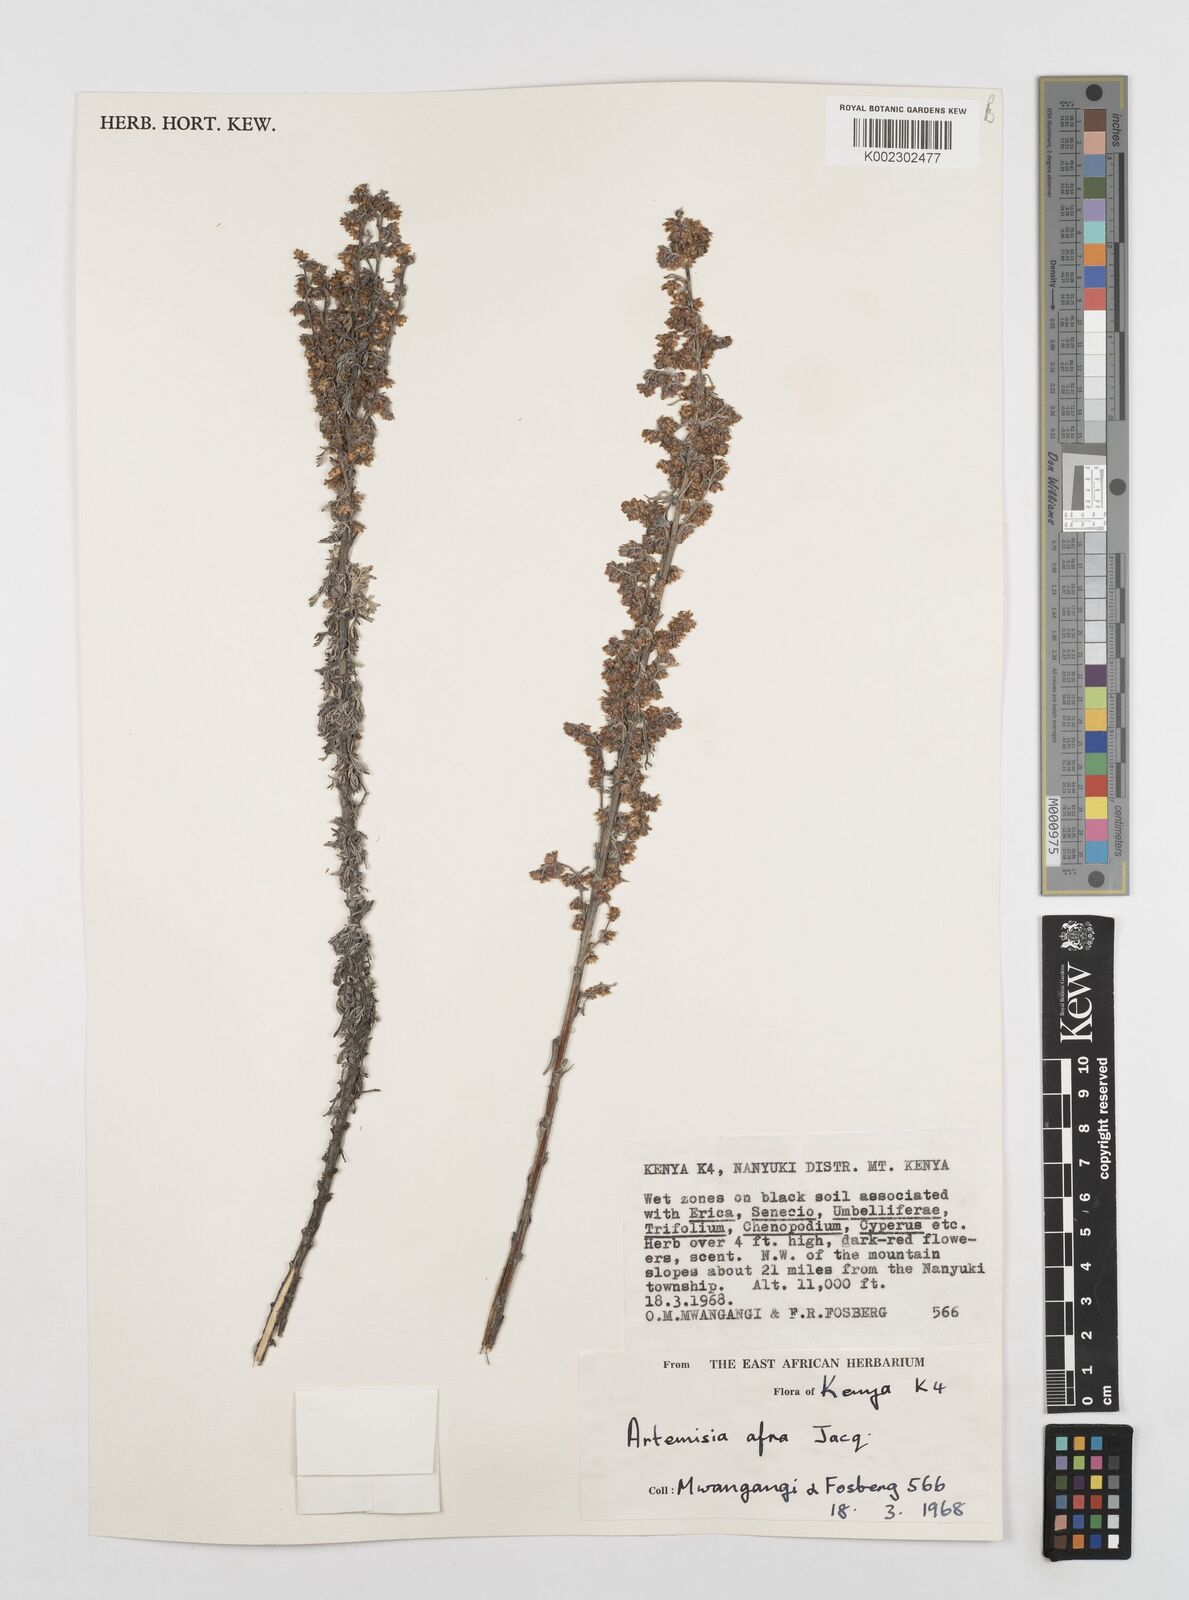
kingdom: Plantae
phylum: Tracheophyta
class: Magnoliopsida
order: Asterales
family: Asteraceae
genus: Artemisia
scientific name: Artemisia afra
